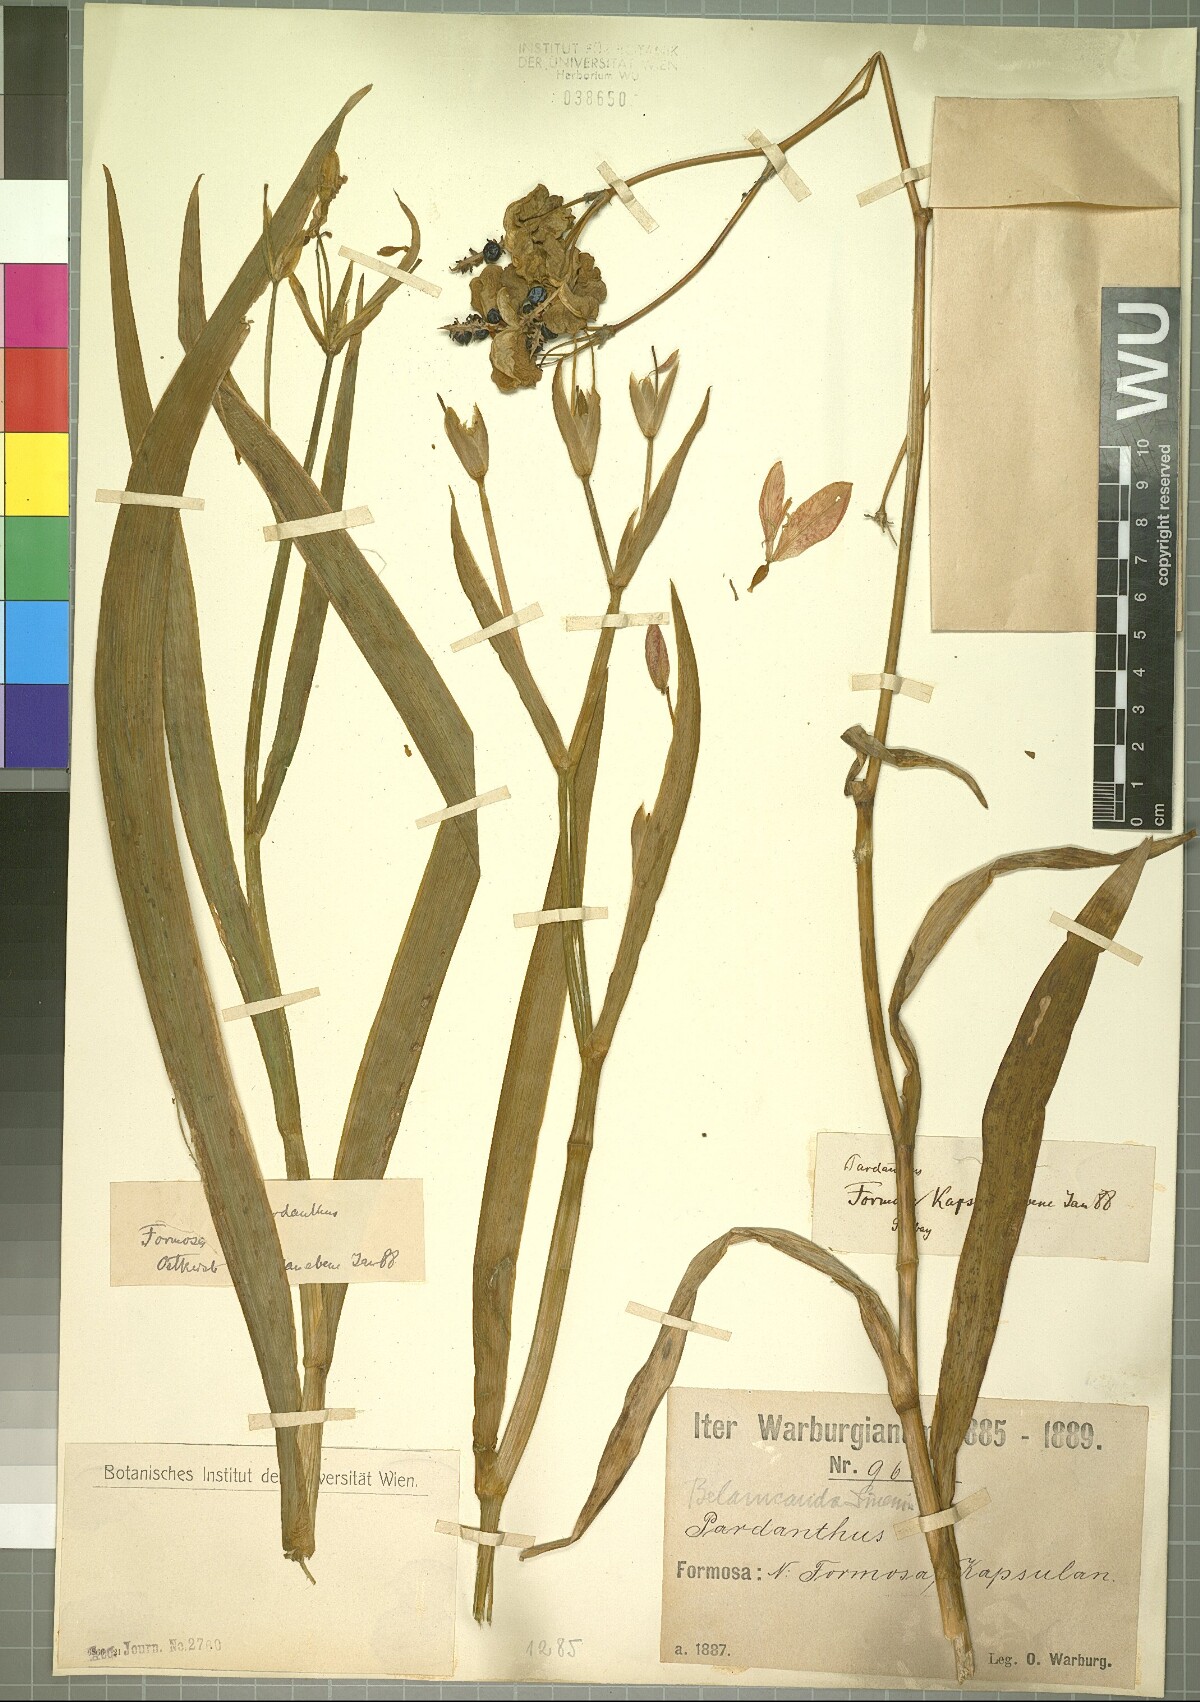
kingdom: Plantae
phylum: Tracheophyta
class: Liliopsida
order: Asparagales
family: Iridaceae
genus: Iris
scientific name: Iris domestica
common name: Belamcanda
